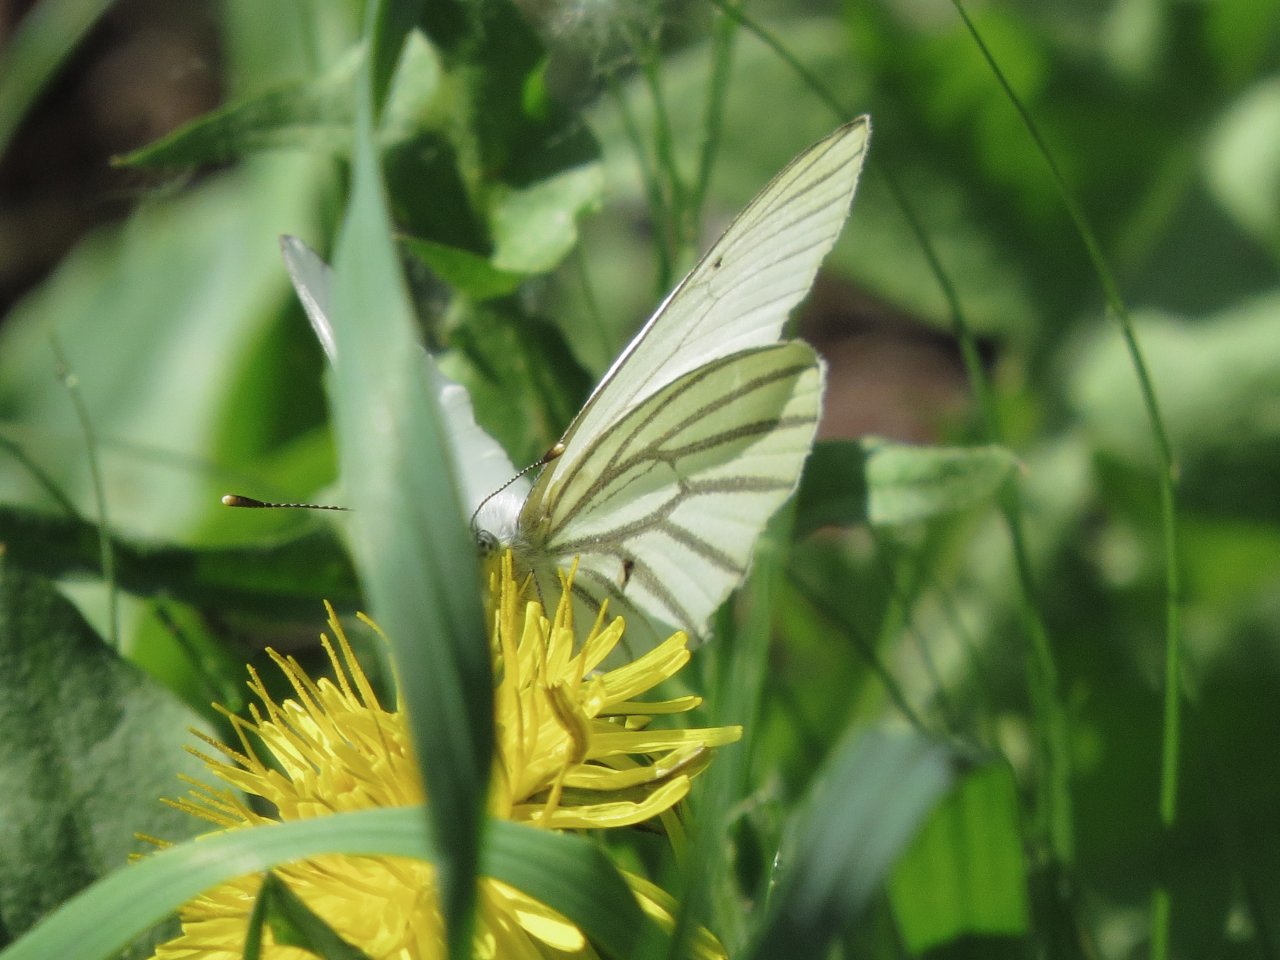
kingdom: Animalia
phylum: Arthropoda
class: Insecta
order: Lepidoptera
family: Pieridae
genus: Pieris
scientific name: Pieris oleracea
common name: Mustard White
